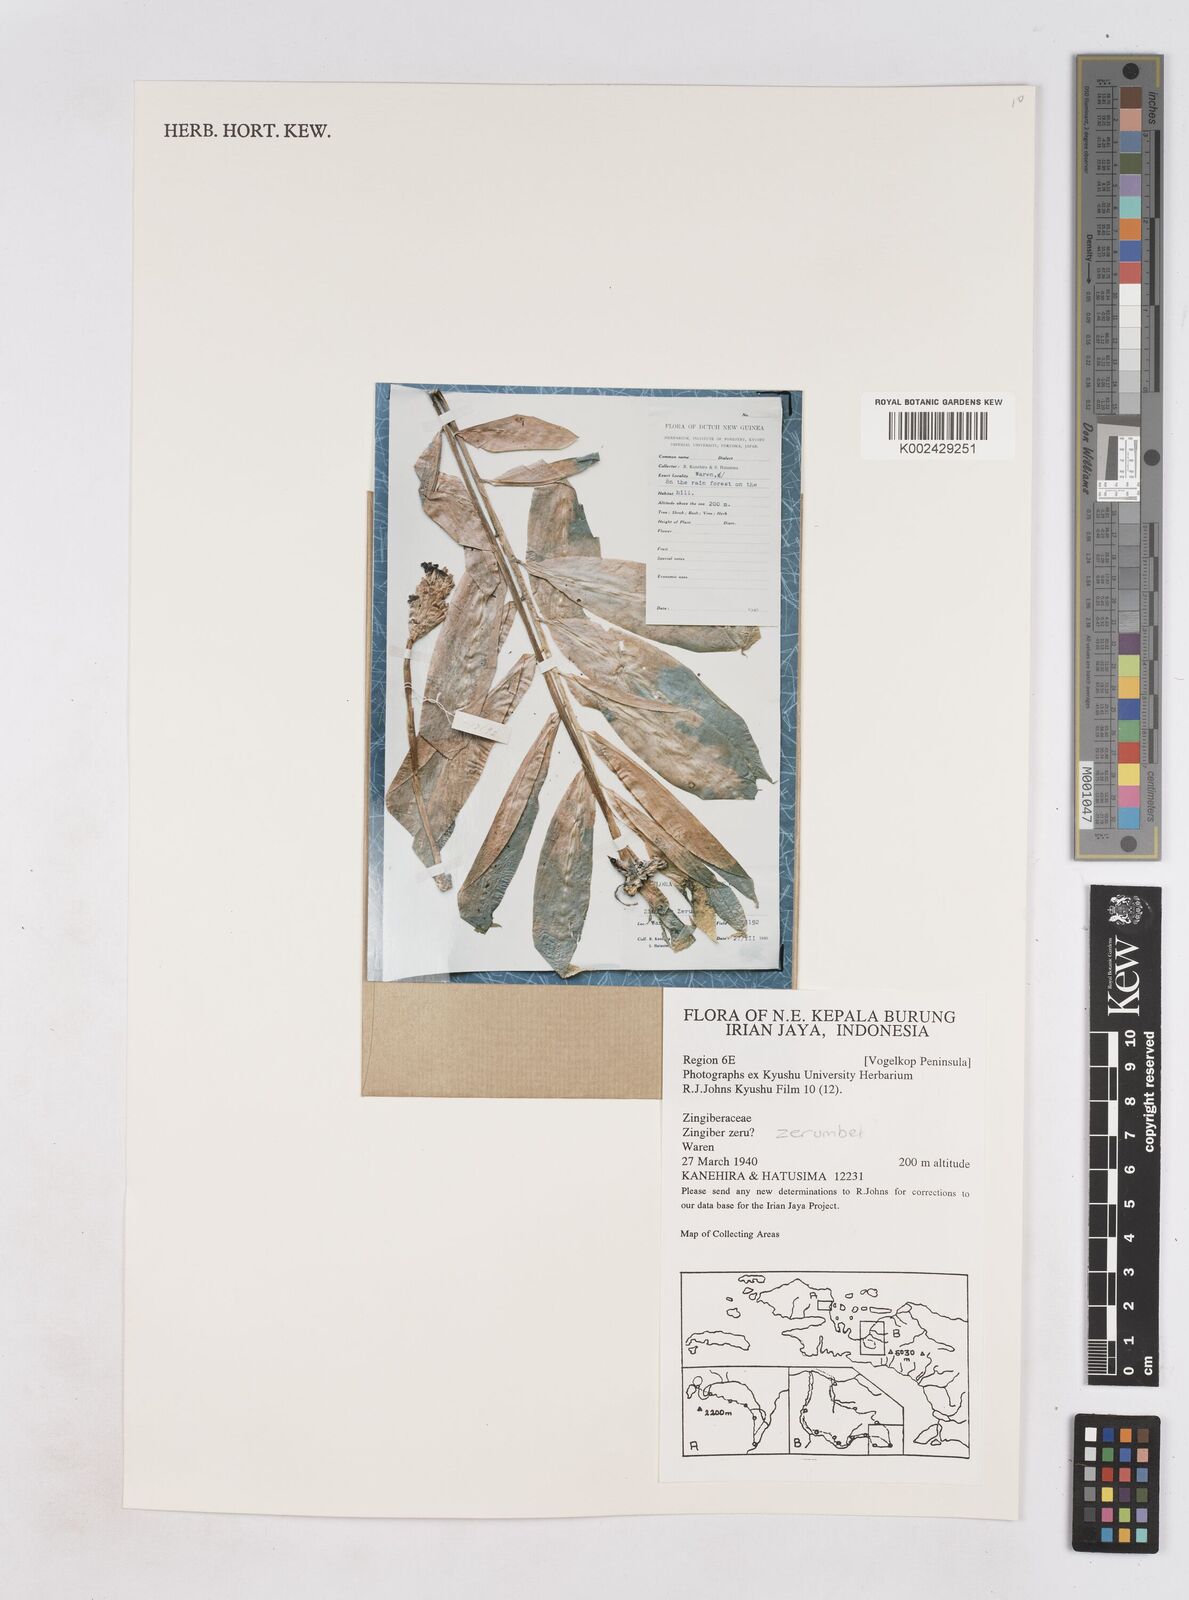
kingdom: Plantae
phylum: Tracheophyta
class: Liliopsida
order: Zingiberales
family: Zingiberaceae
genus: Zingiber
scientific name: Zingiber zerumbet
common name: Bitter ginger
